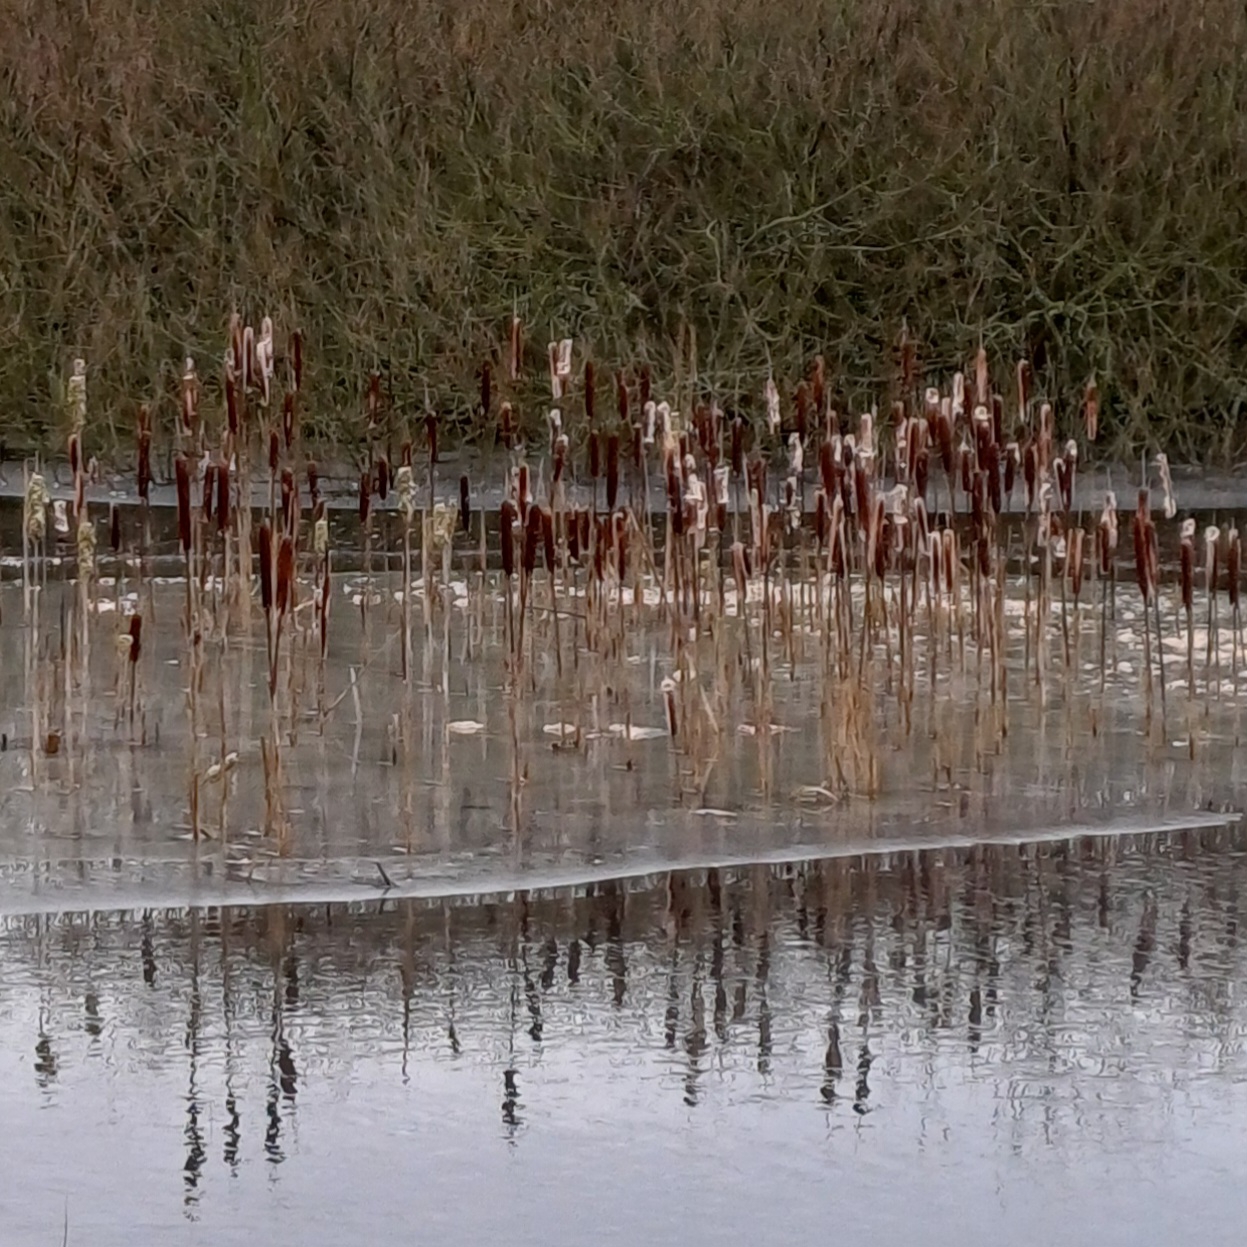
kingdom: Plantae
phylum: Tracheophyta
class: Liliopsida
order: Poales
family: Typhaceae
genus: Typha
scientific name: Typha latifolia
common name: Bredbladet dunhammer
